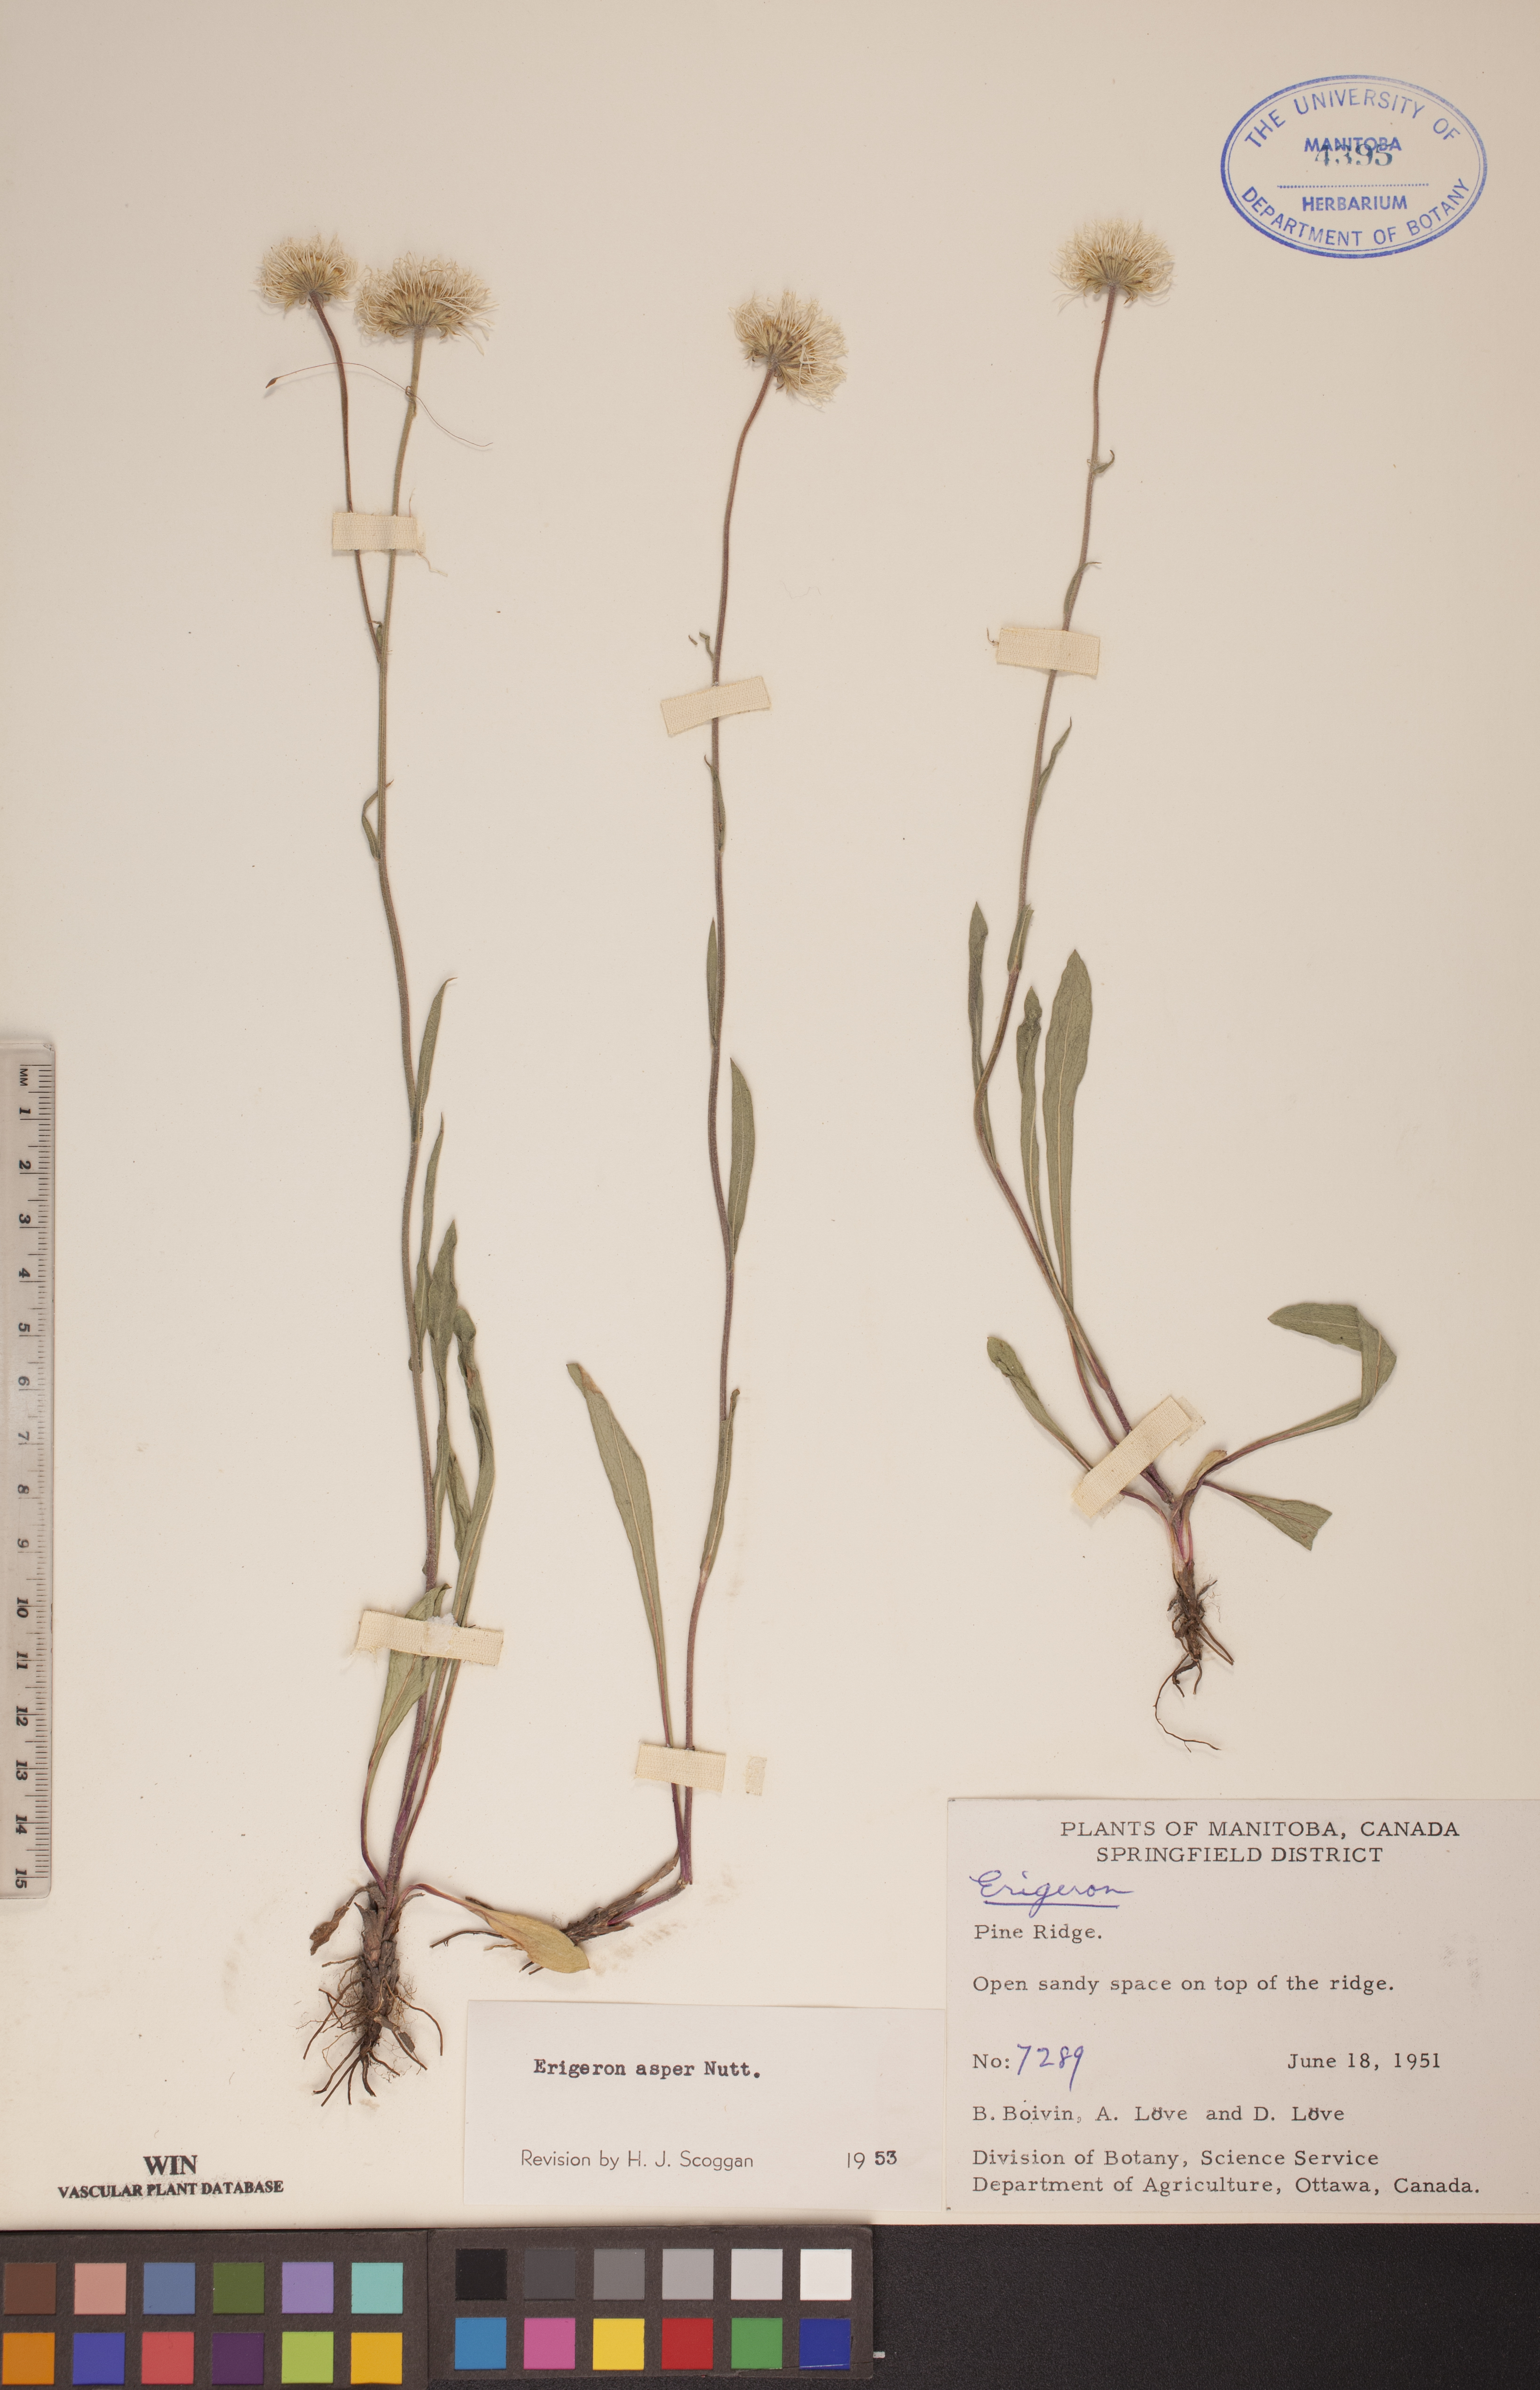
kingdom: Plantae
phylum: Tracheophyta
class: Magnoliopsida
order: Asterales
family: Asteraceae
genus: Erigeron
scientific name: Erigeron glabellus
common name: Smooth fleabane
